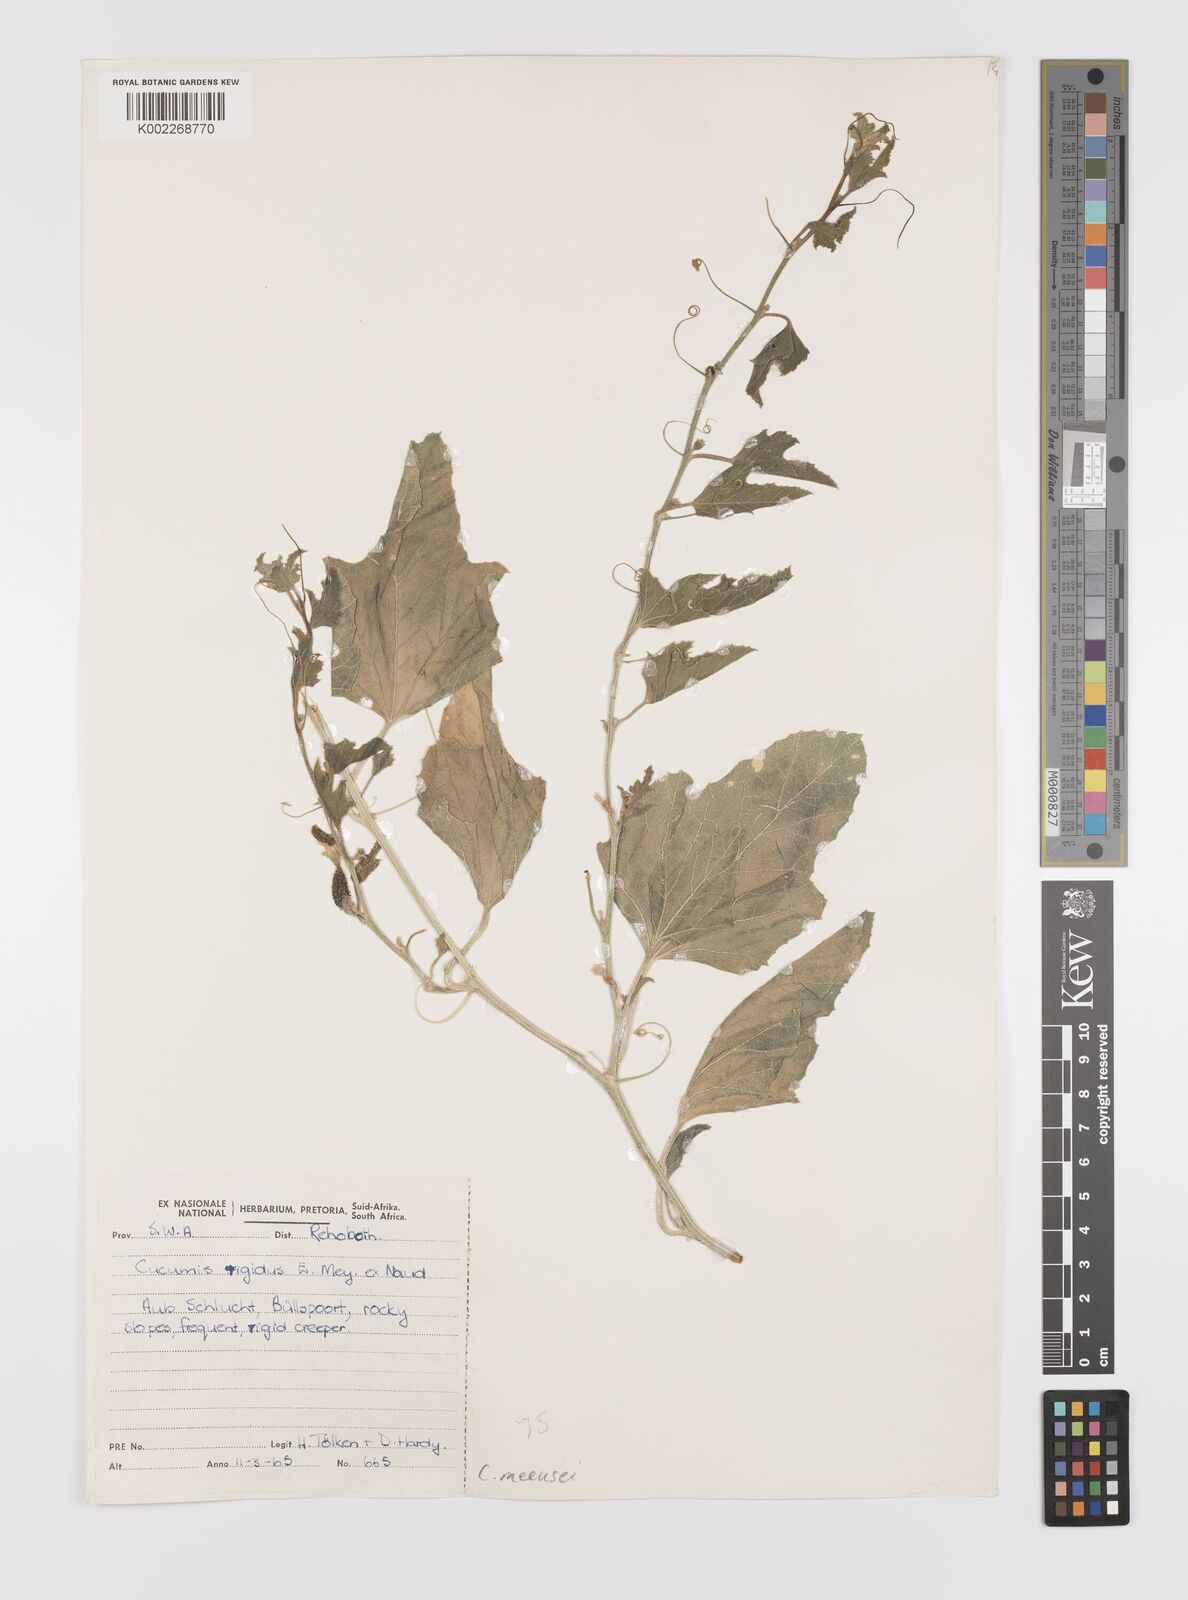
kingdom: Plantae
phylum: Tracheophyta
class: Magnoliopsida
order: Cucurbitales
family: Cucurbitaceae
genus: Cucumis
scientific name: Cucumis meeusei
